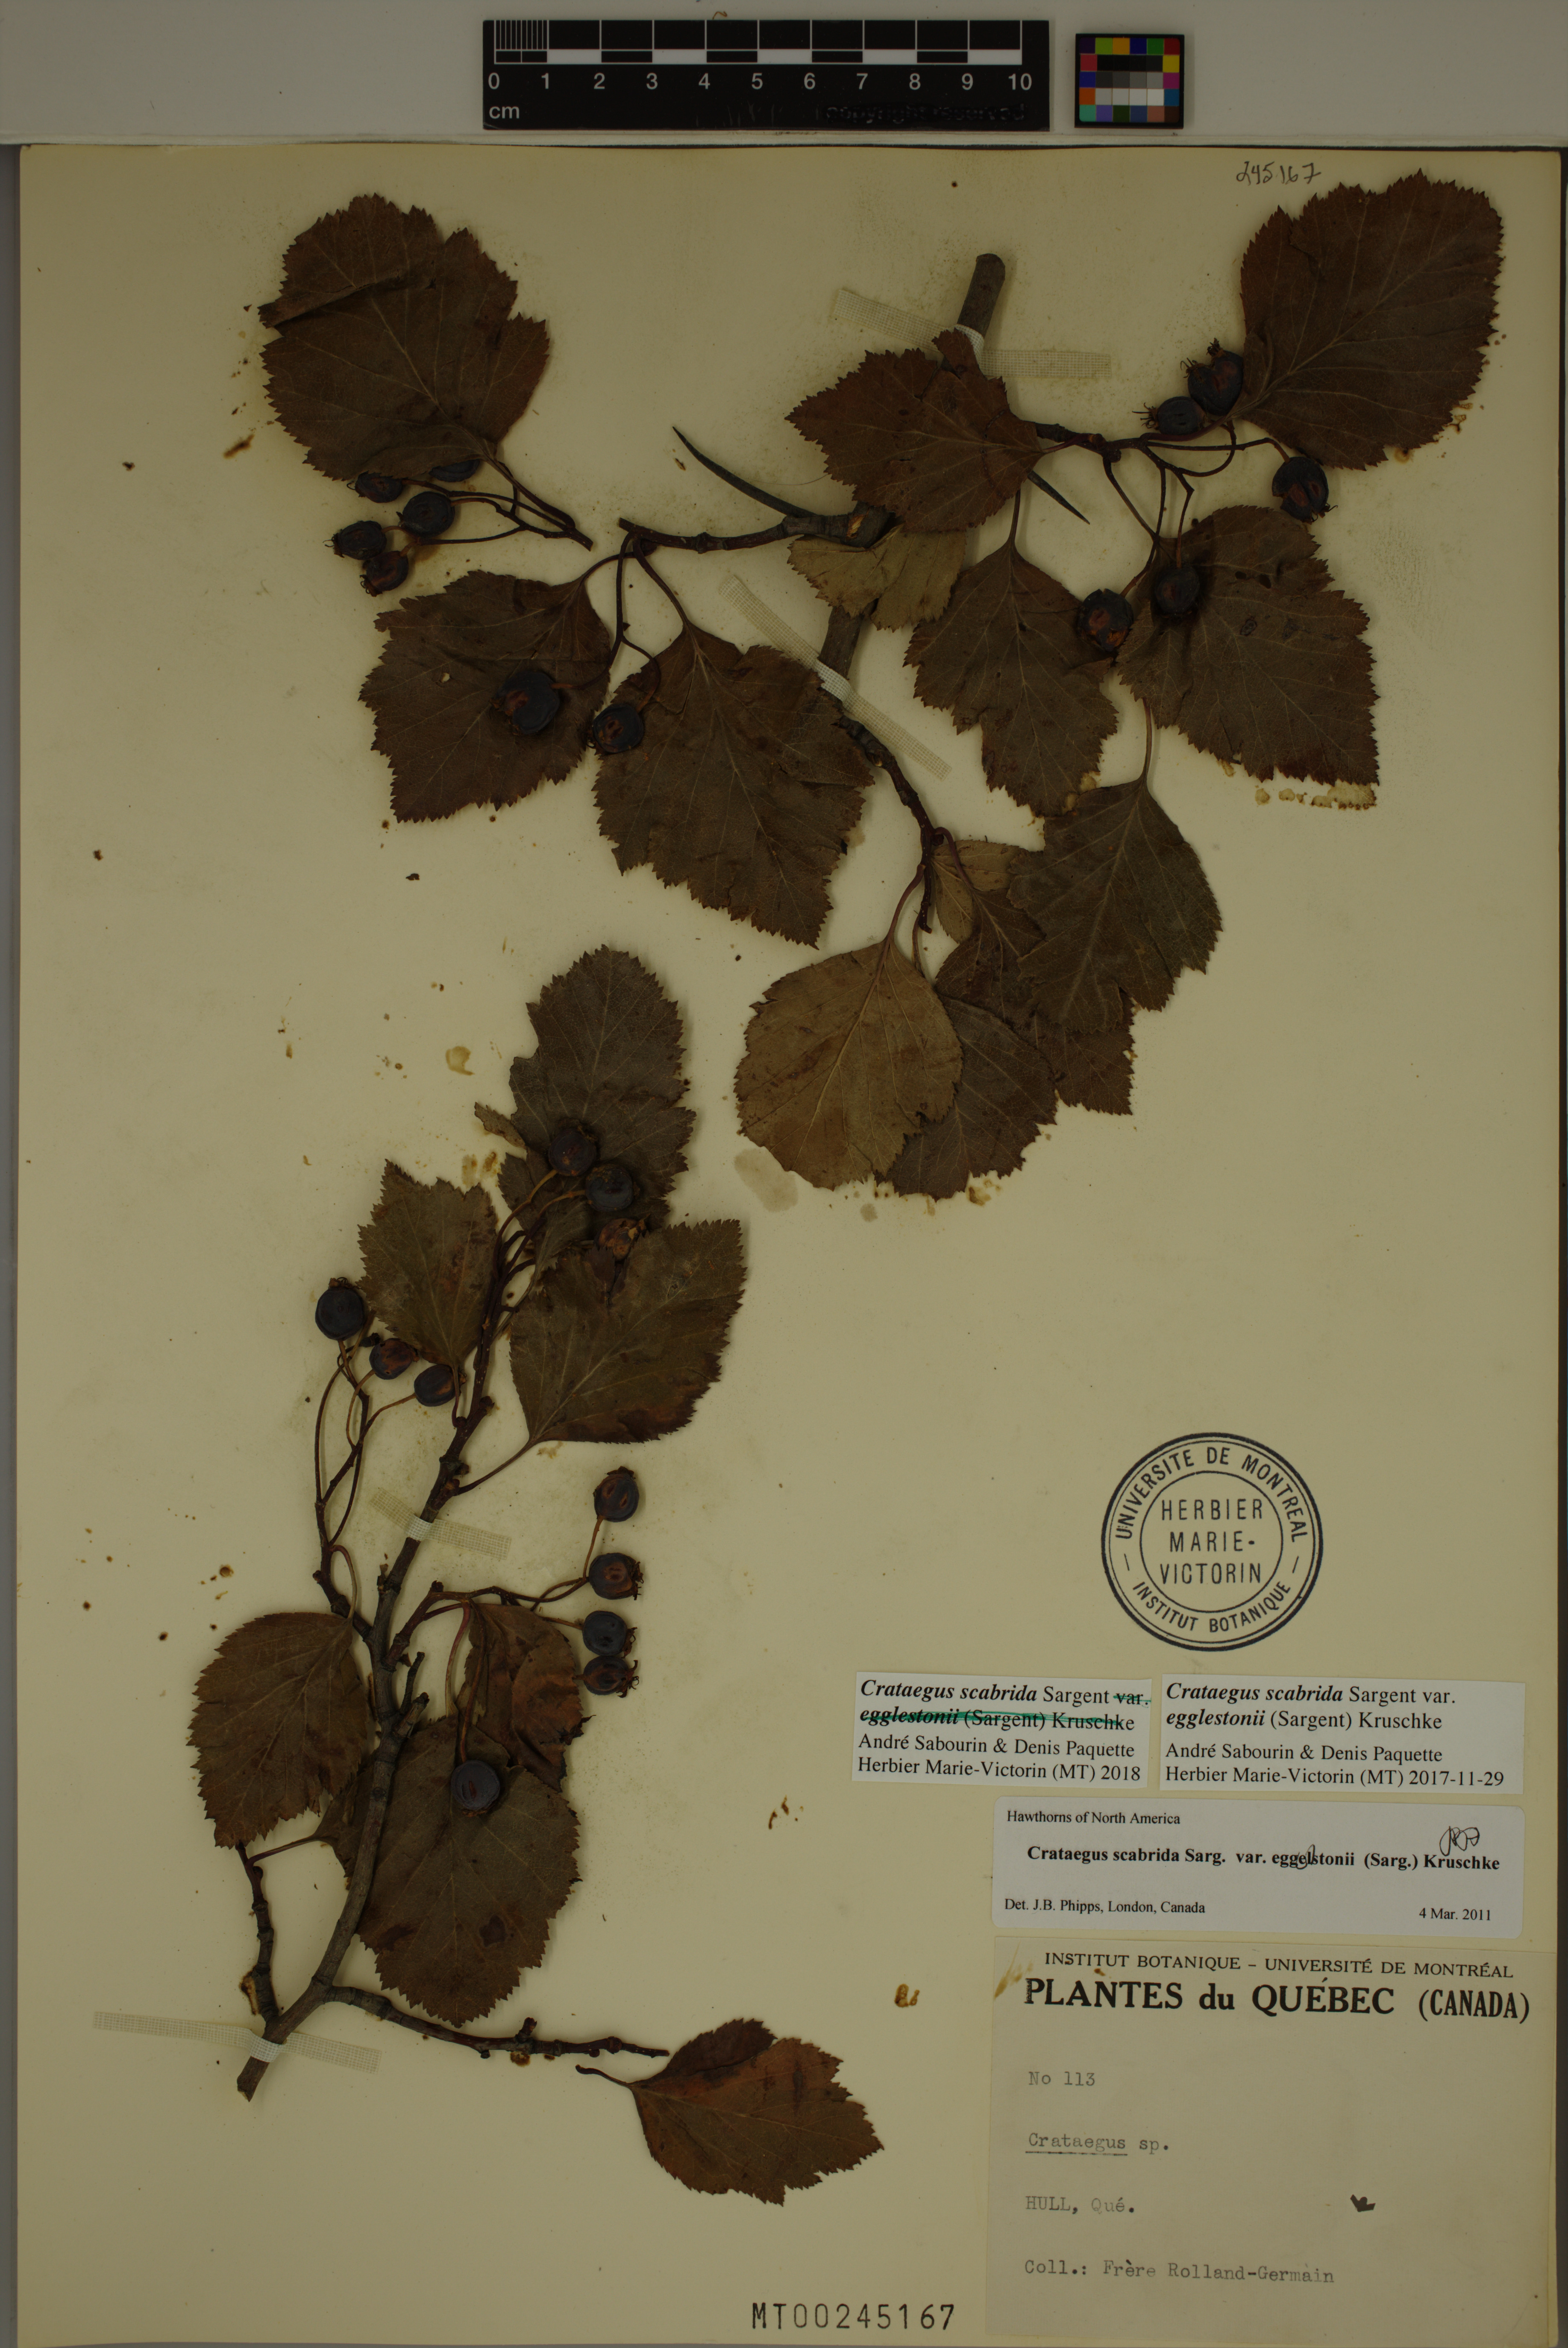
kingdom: Plantae
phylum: Tracheophyta
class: Magnoliopsida
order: Rosales
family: Rosaceae
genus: Crataegus
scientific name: Crataegus scabrida
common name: Rough hawthorn
